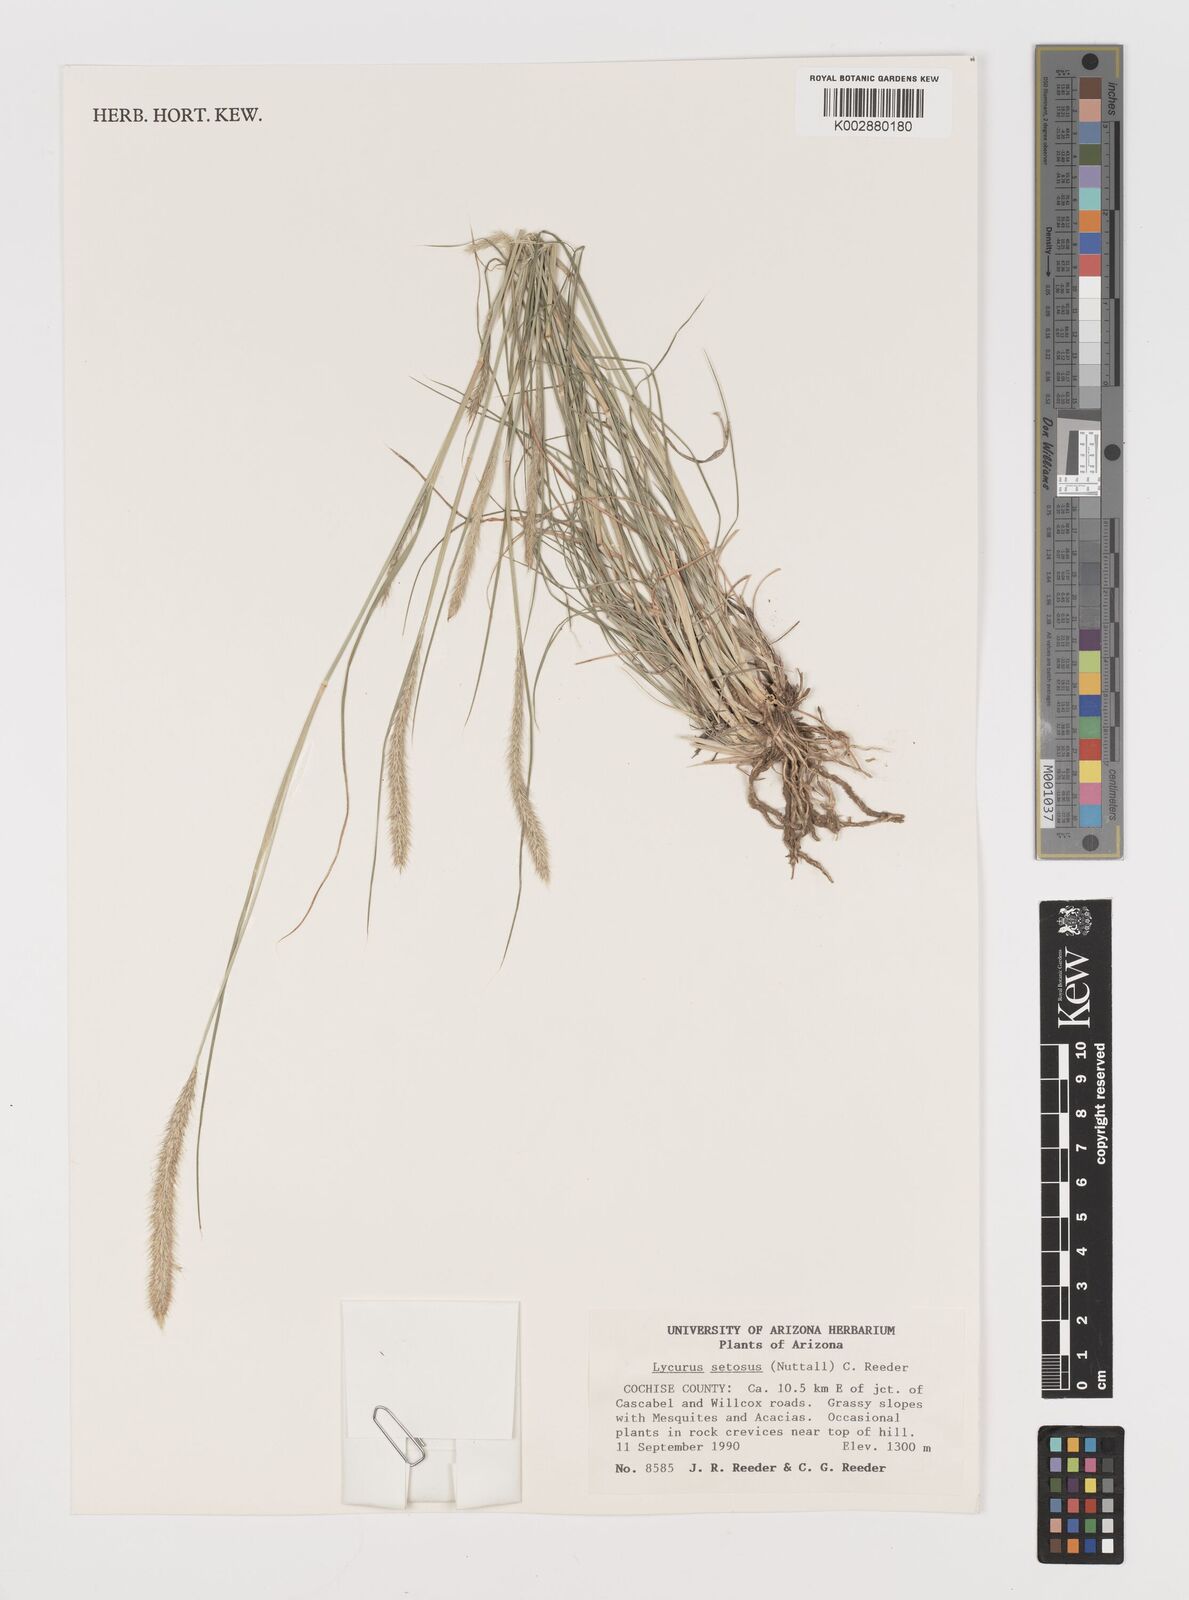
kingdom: Plantae
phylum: Tracheophyta
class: Liliopsida
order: Poales
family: Poaceae
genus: Muhlenbergia
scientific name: Muhlenbergia alopecuroides
